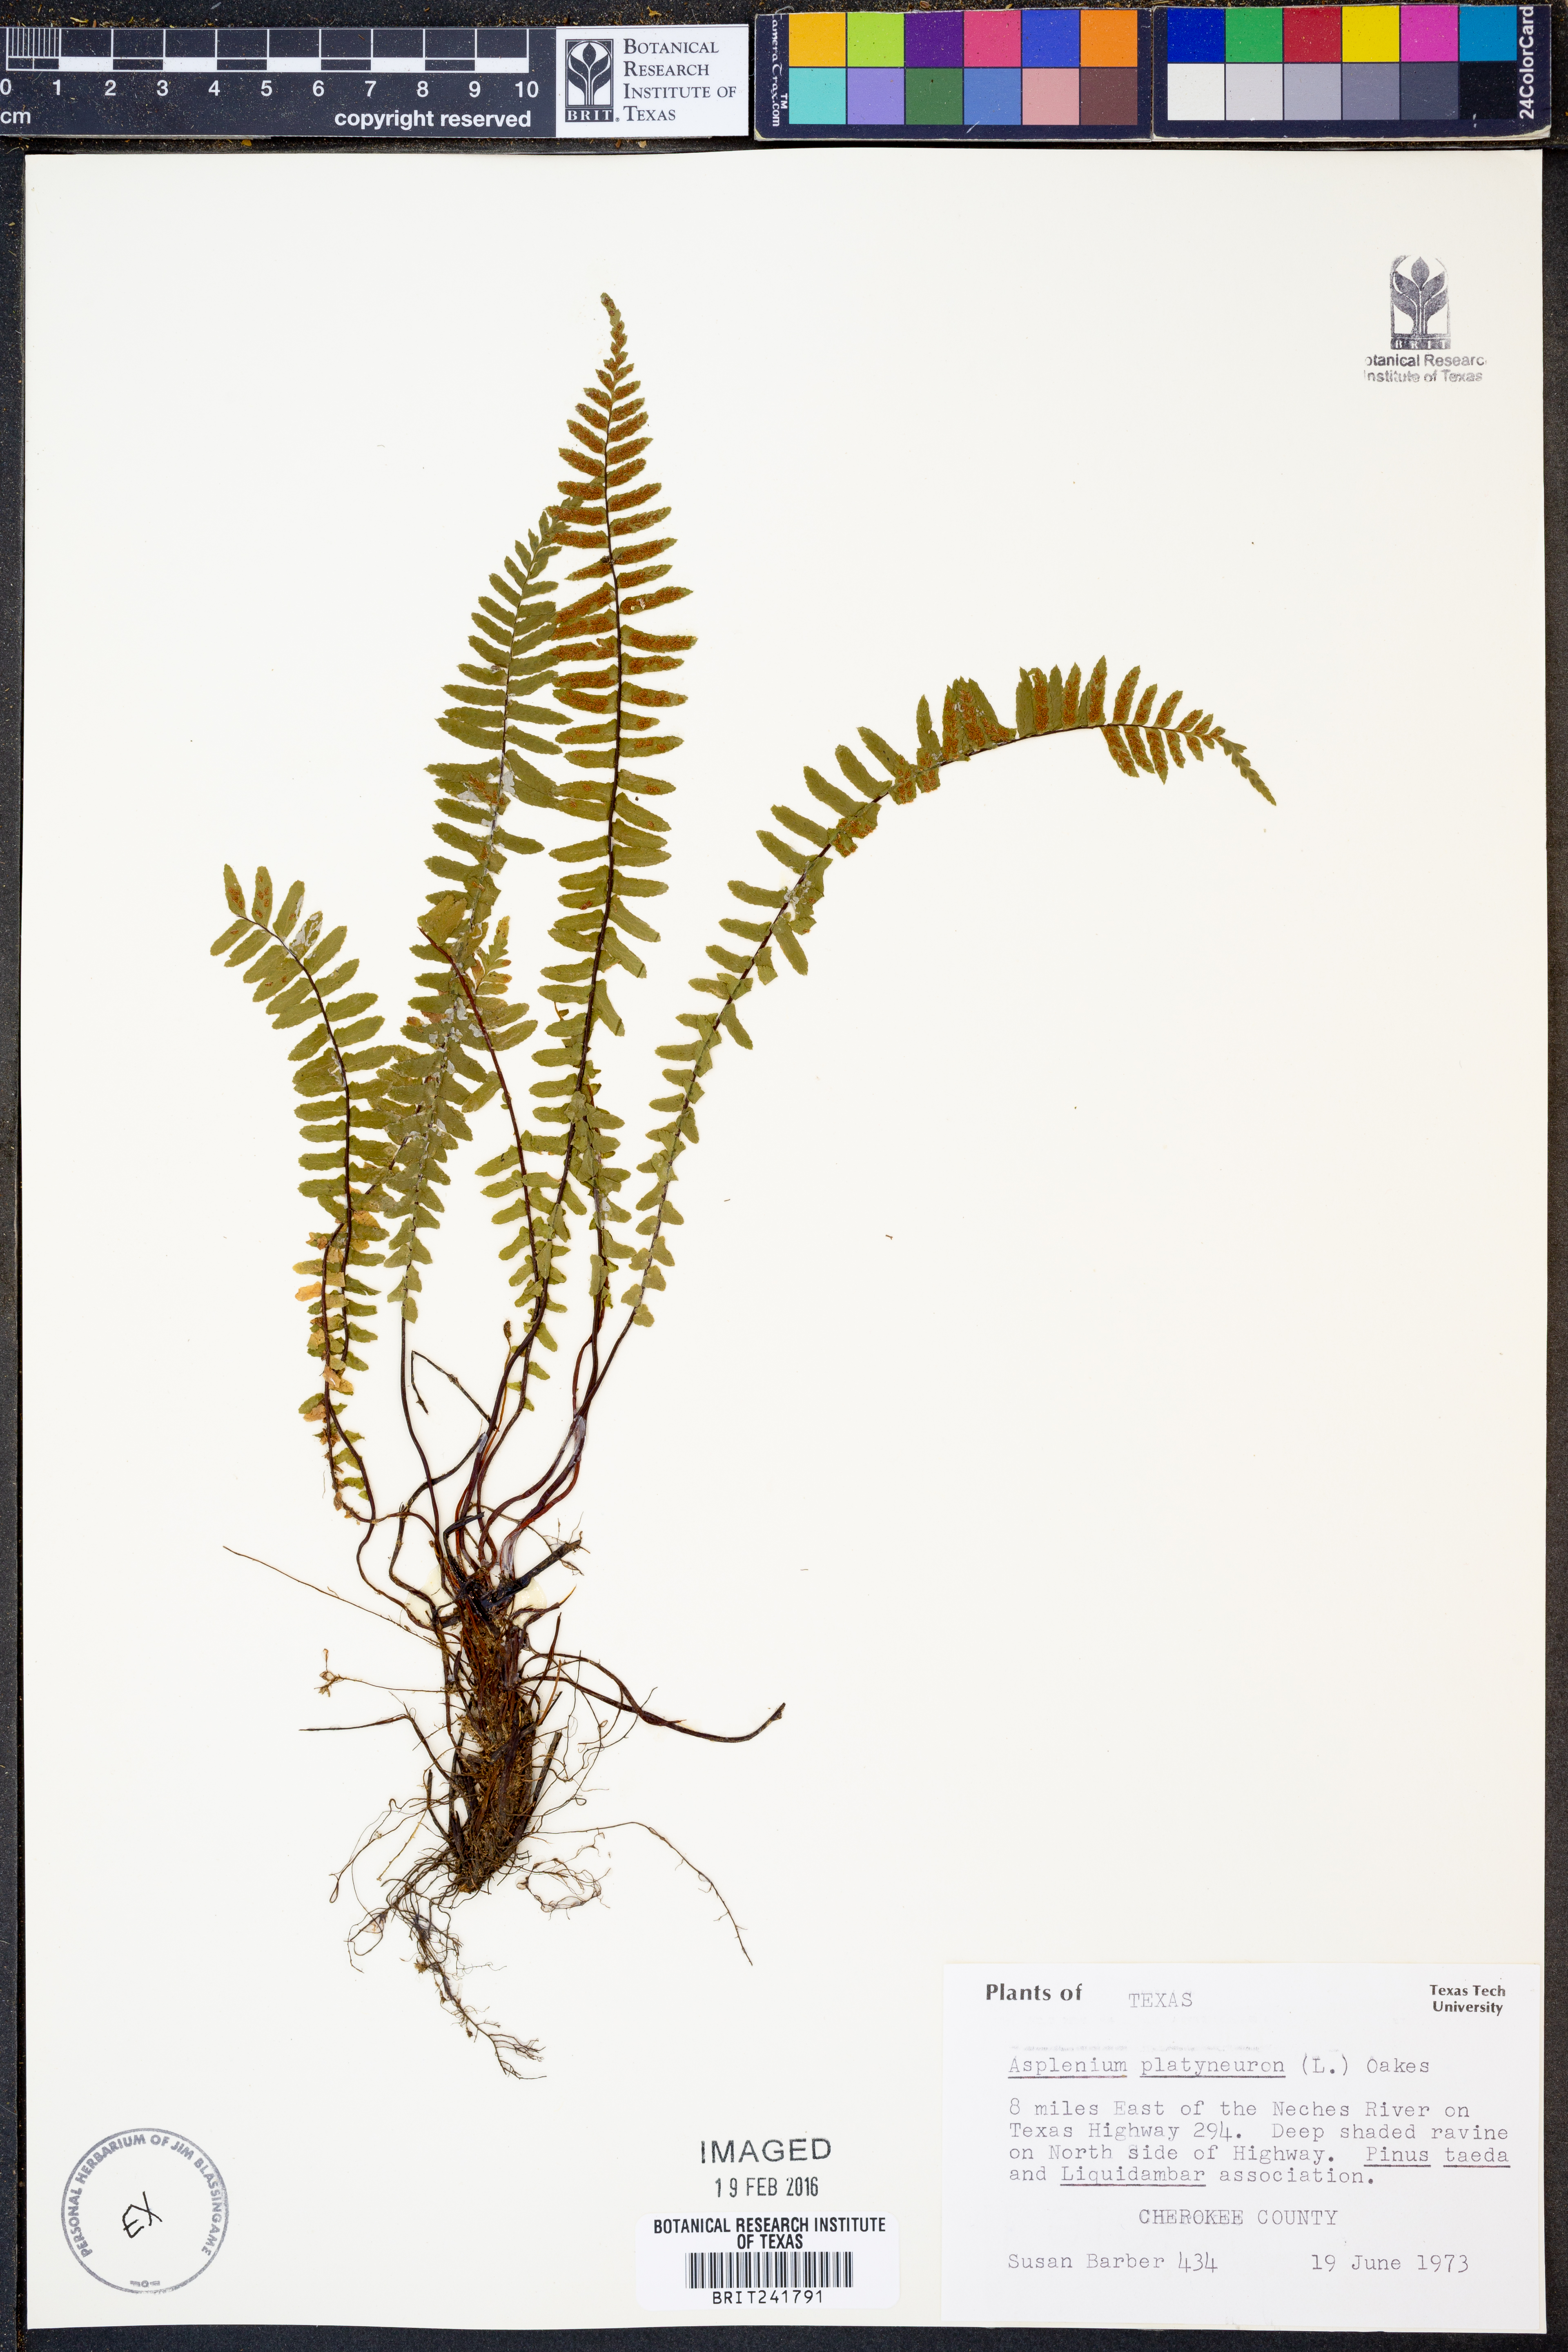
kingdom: Plantae
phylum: Tracheophyta
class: Polypodiopsida
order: Polypodiales
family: Aspleniaceae
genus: Asplenium
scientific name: Asplenium platyneuron
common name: Ebony spleenwort
